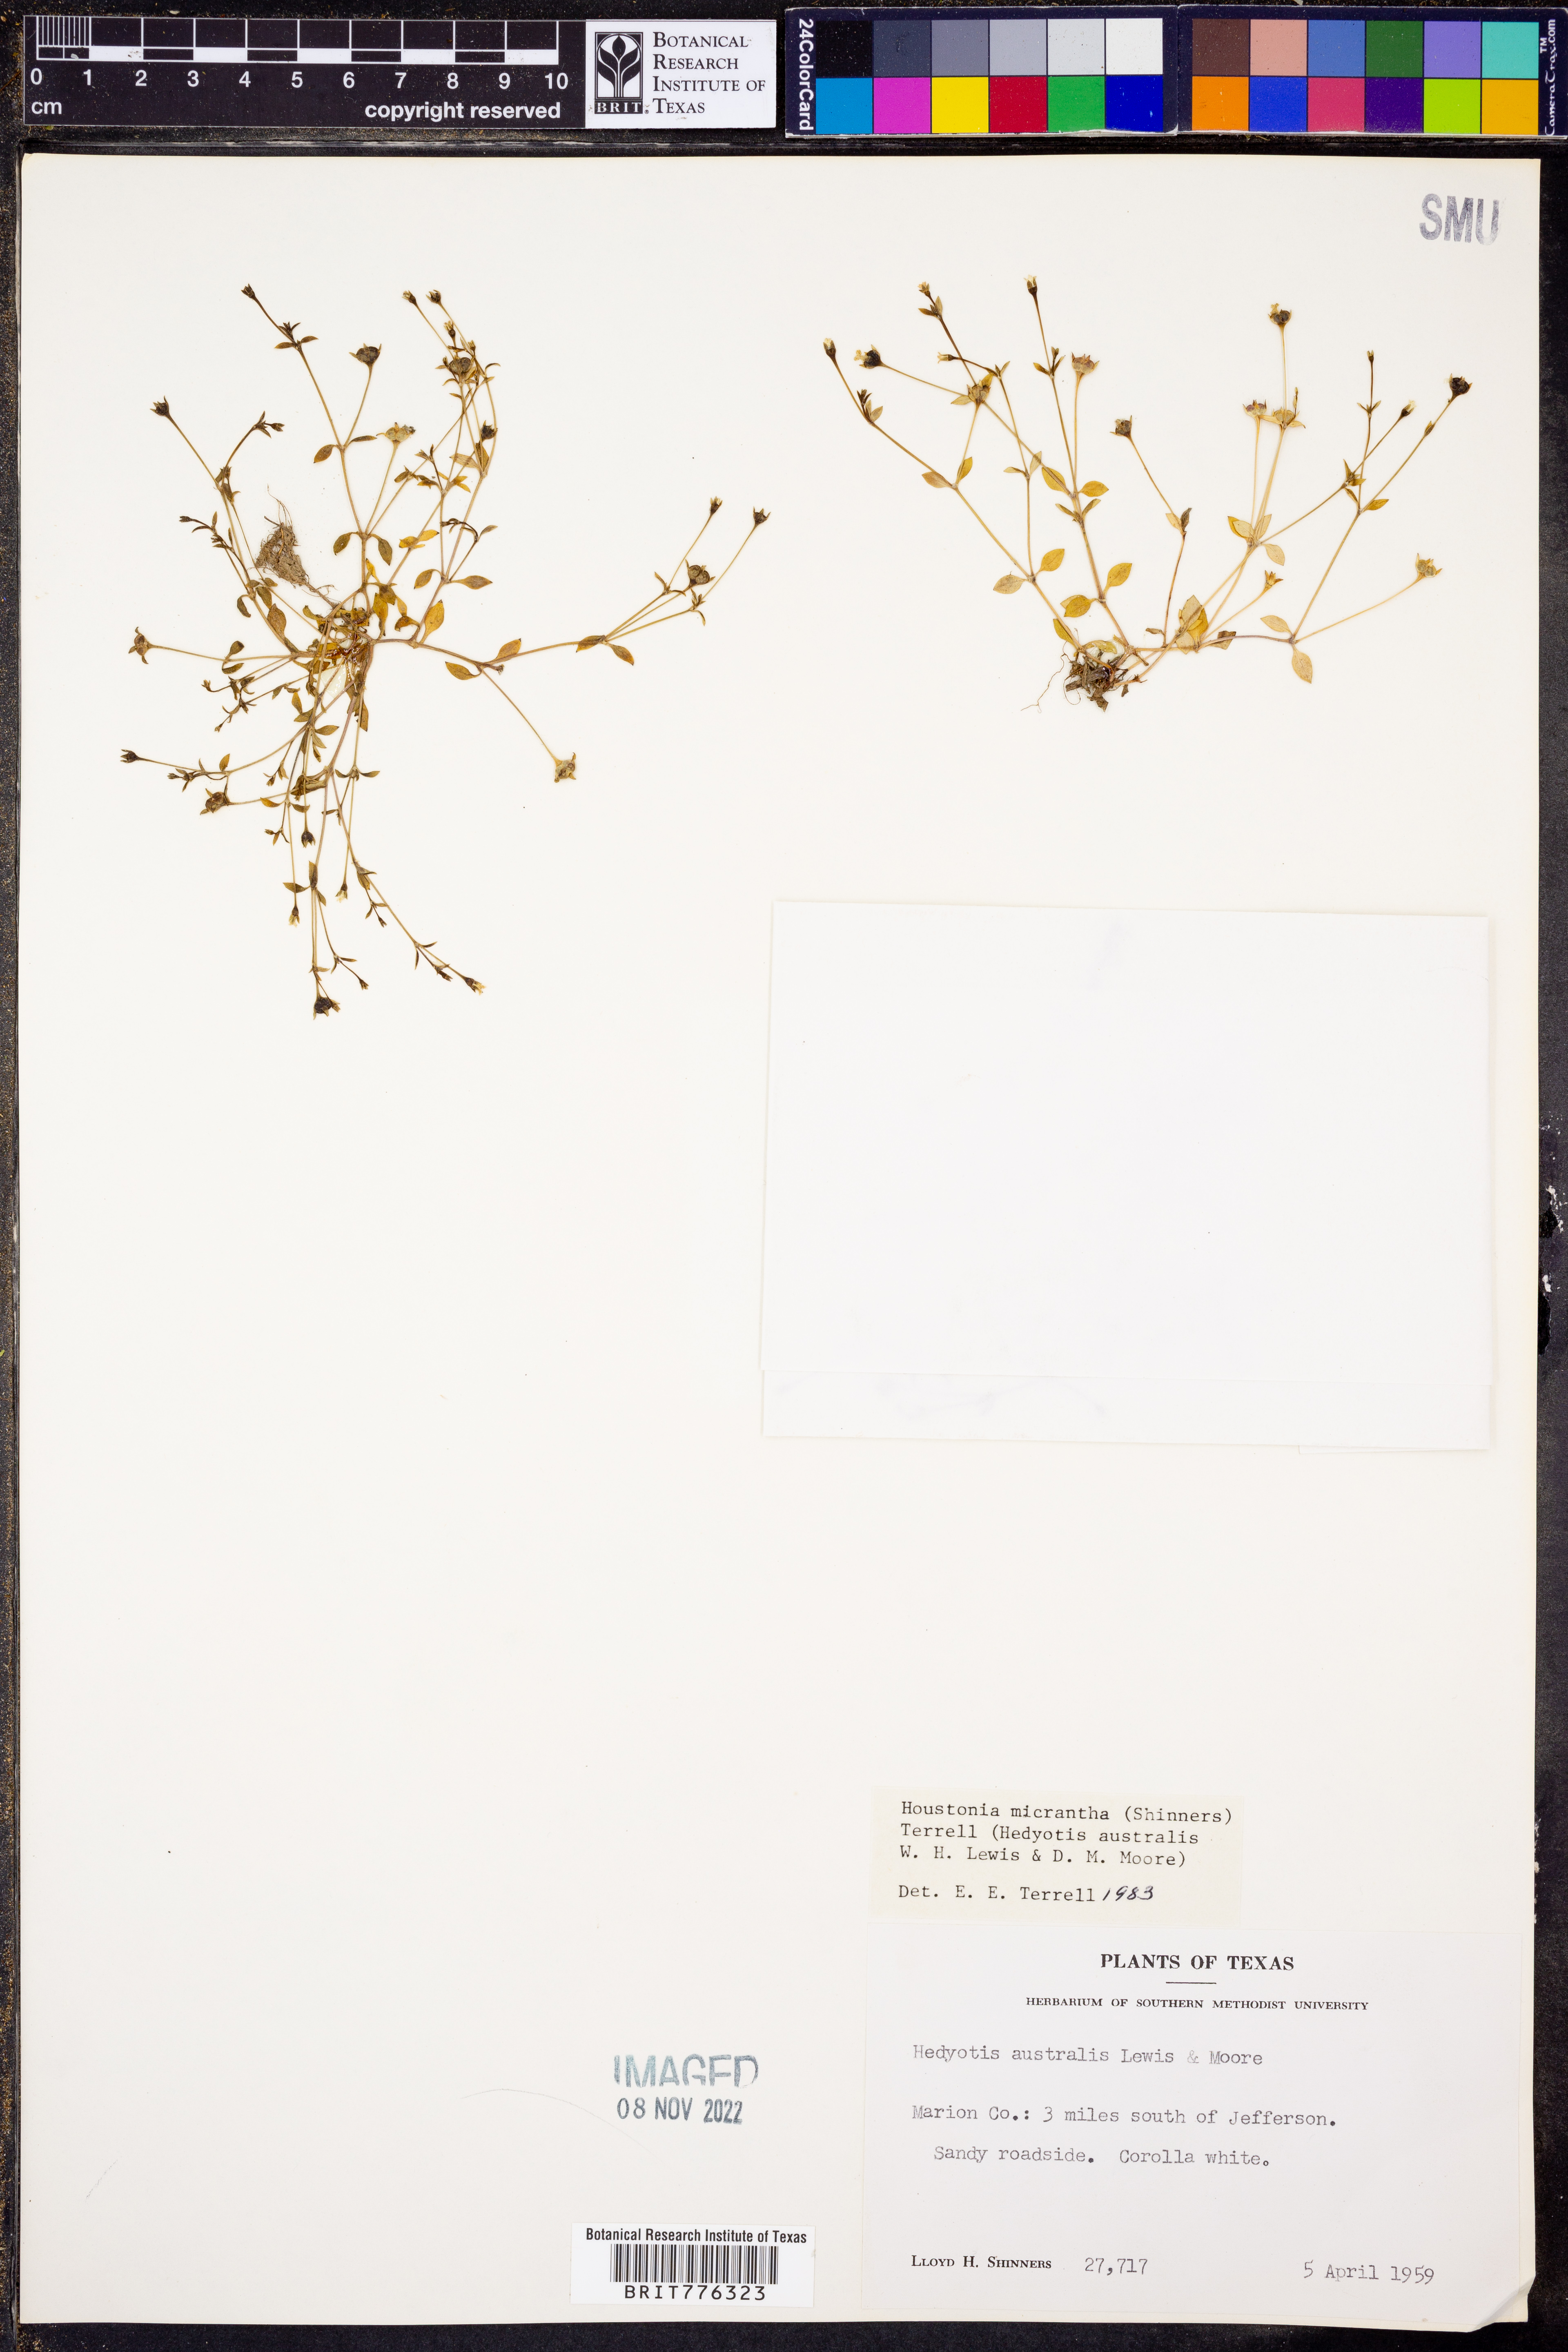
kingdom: Plantae
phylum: Tracheophyta
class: Magnoliopsida
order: Gentianales
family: Rubiaceae
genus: Houstonia
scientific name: Houstonia micrantha
